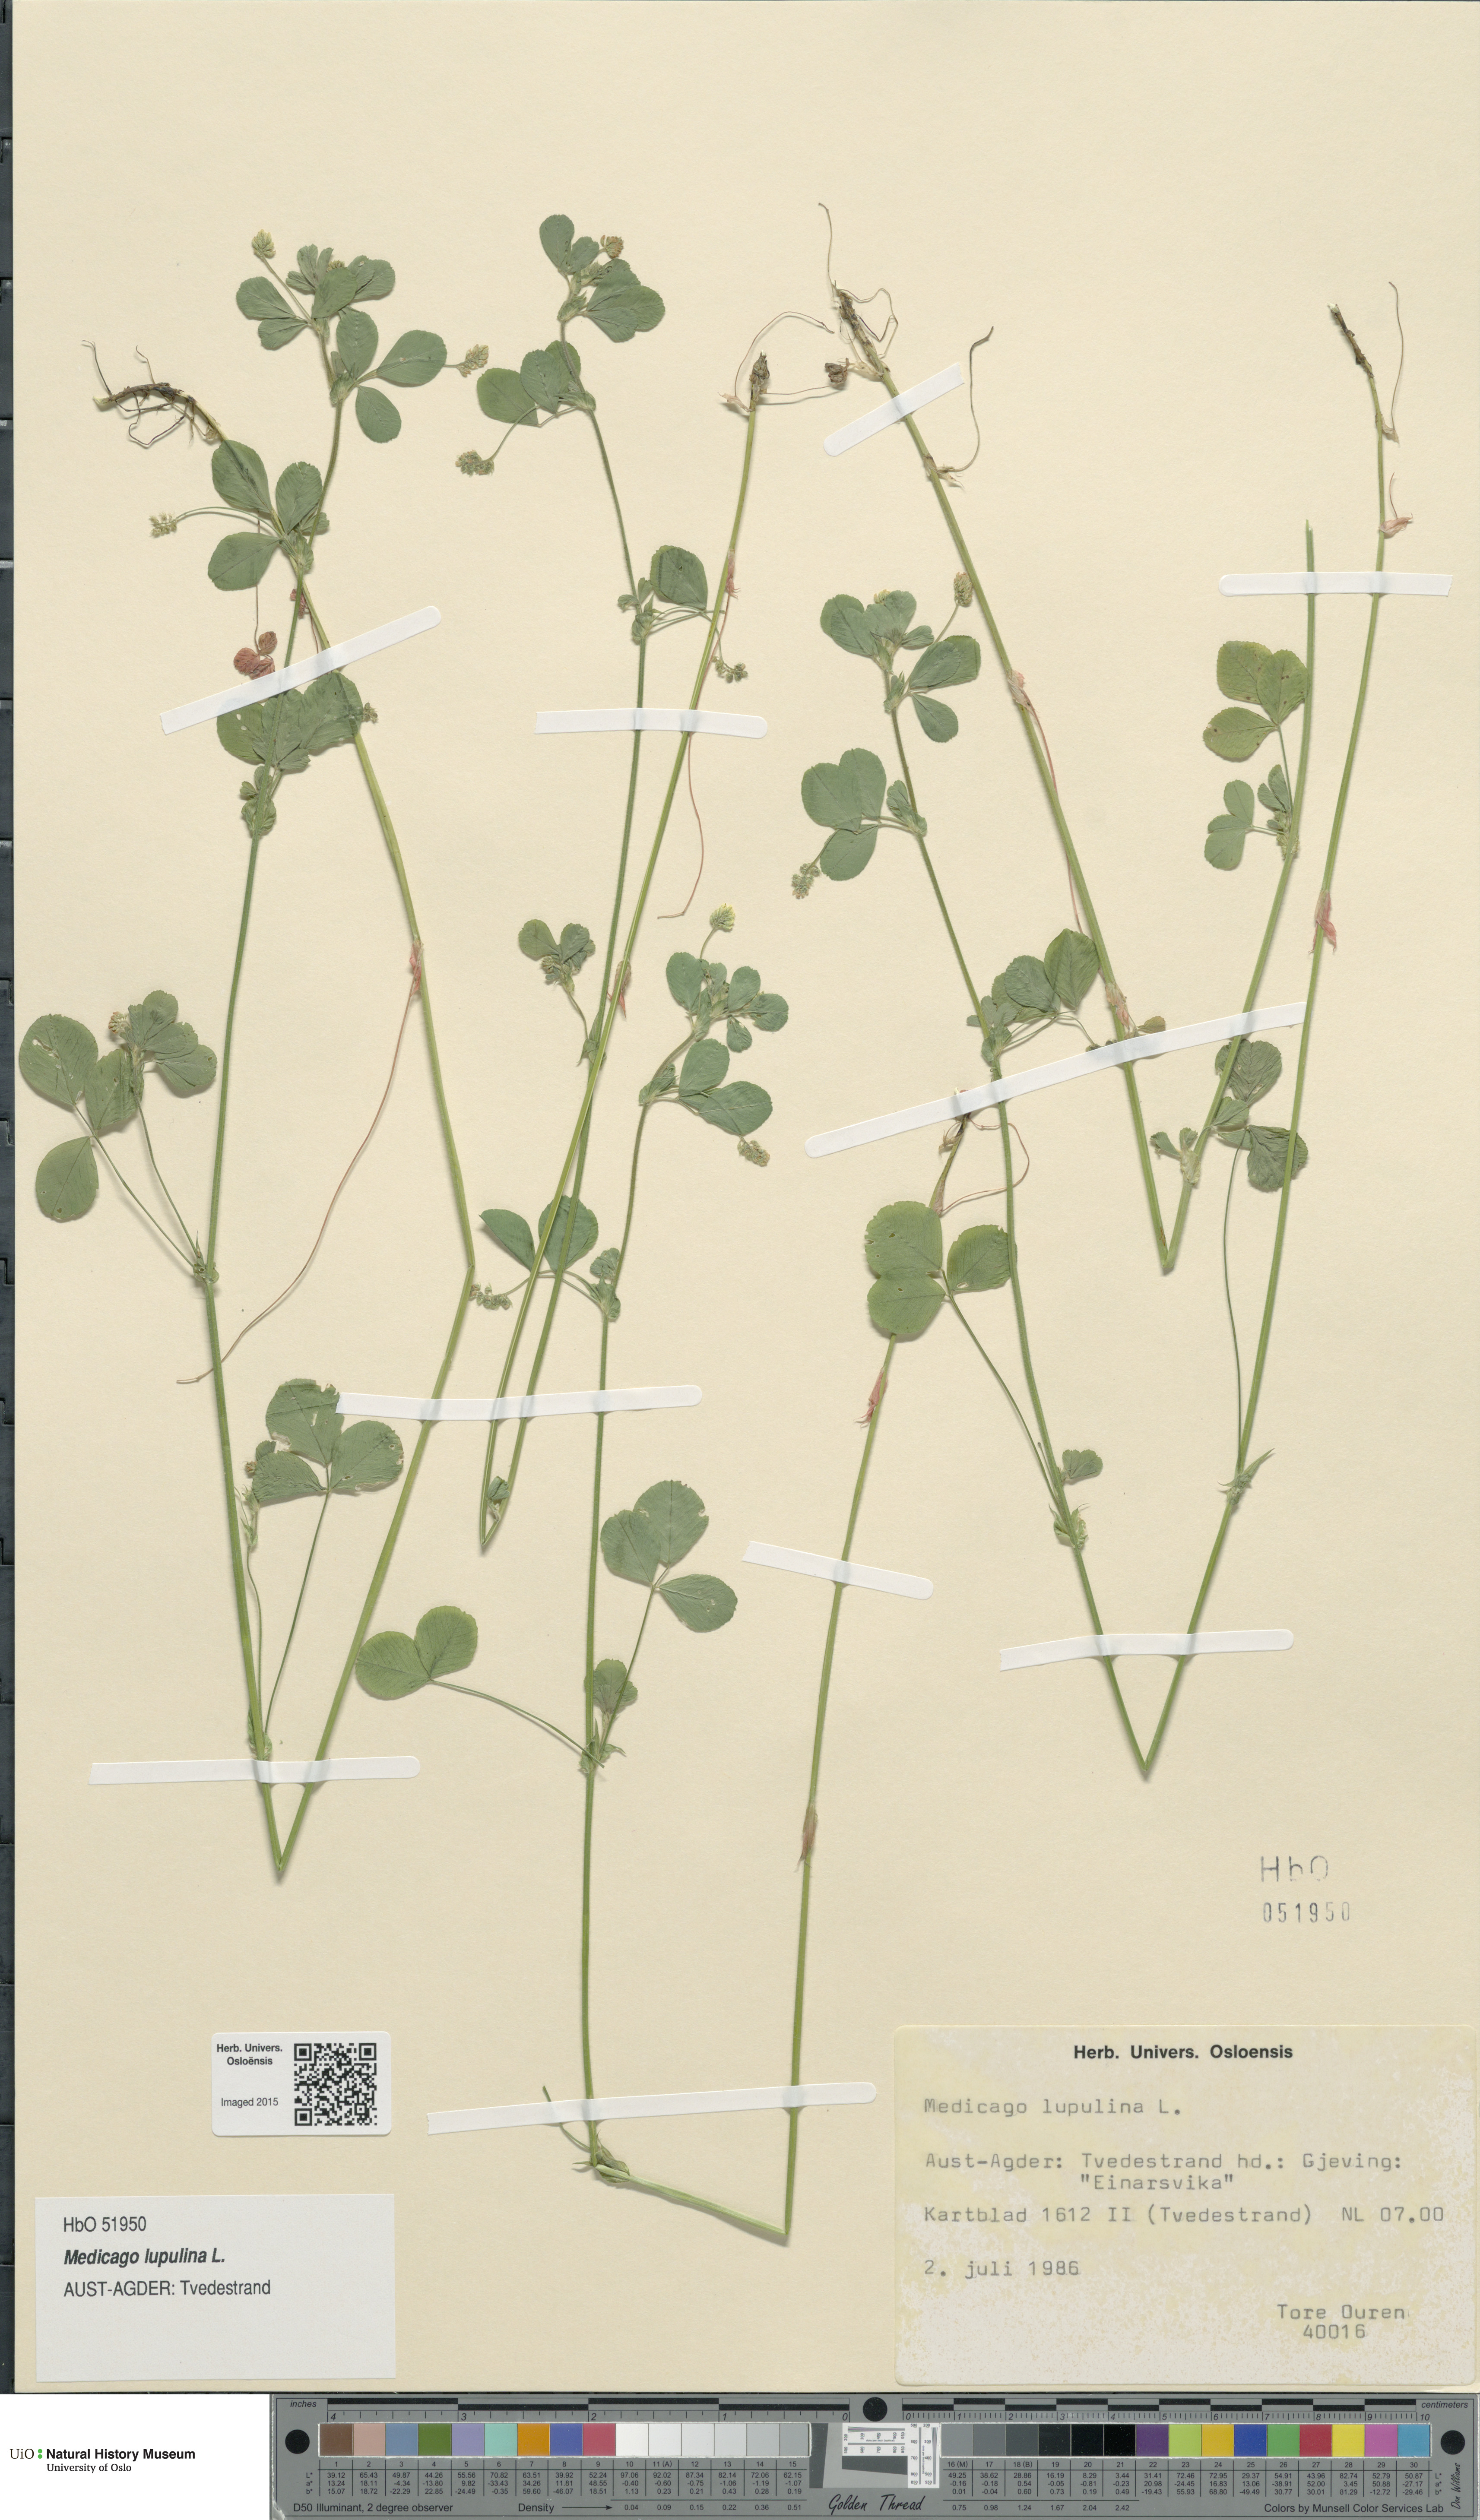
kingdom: Plantae
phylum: Tracheophyta
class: Magnoliopsida
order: Fabales
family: Fabaceae
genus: Medicago
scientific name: Medicago lupulina
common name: Black medick
